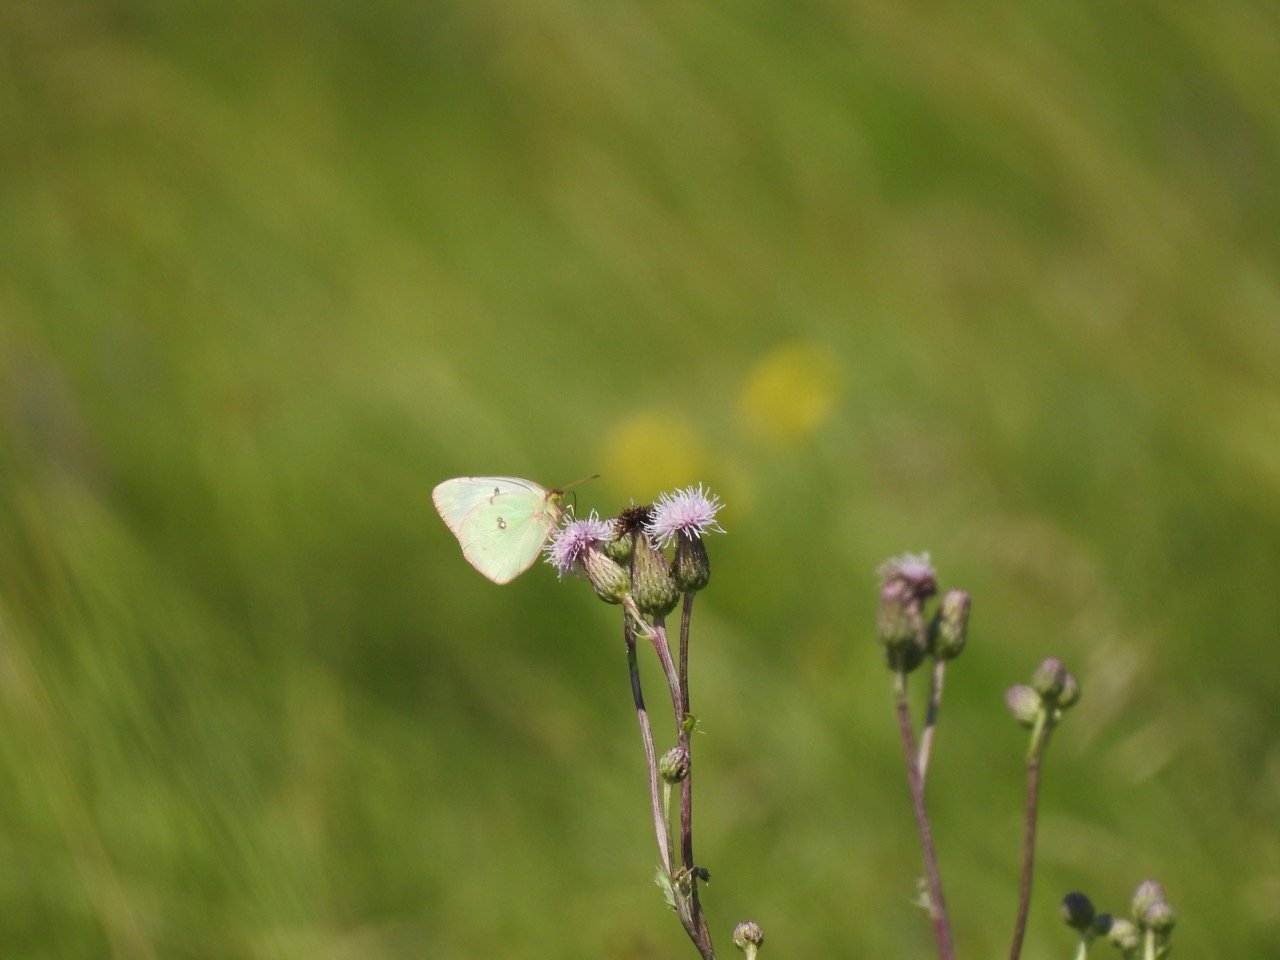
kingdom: Animalia
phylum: Arthropoda
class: Insecta
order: Lepidoptera
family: Pieridae
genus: Colias
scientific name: Colias eurytheme
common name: Orange Sulphur
